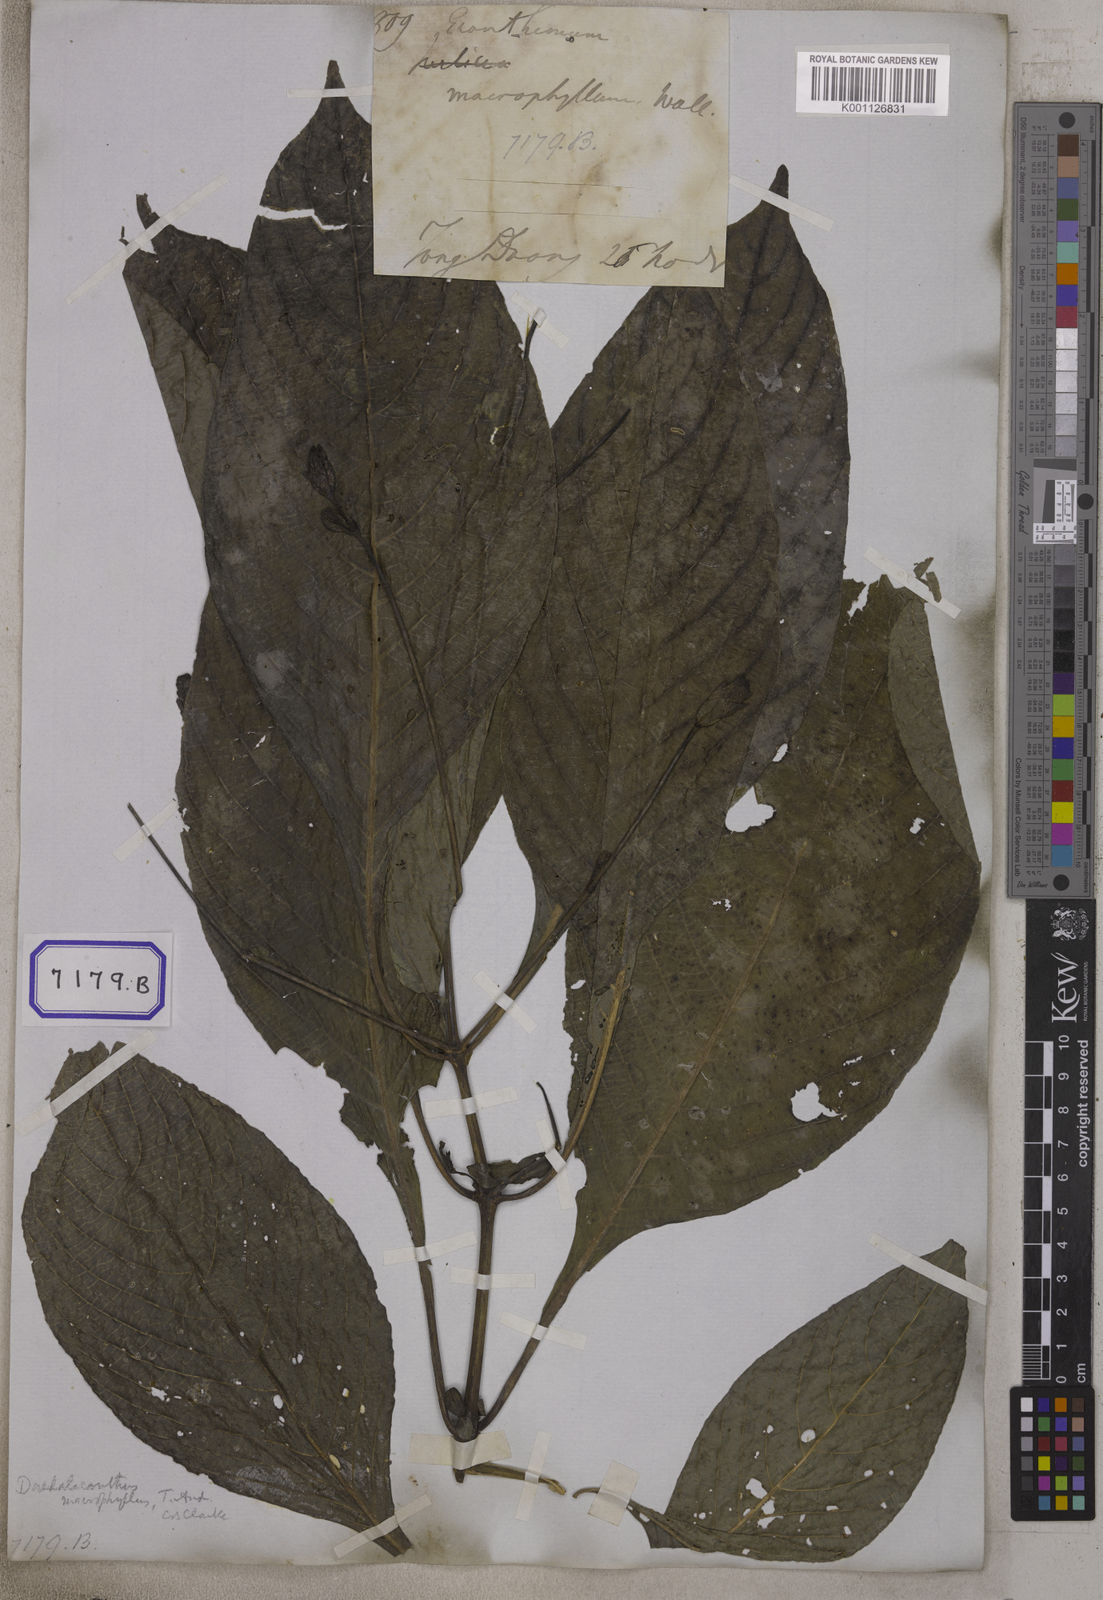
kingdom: Plantae
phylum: Tracheophyta
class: Magnoliopsida
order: Lamiales
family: Acanthaceae
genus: Eranthemum
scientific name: Eranthemum
